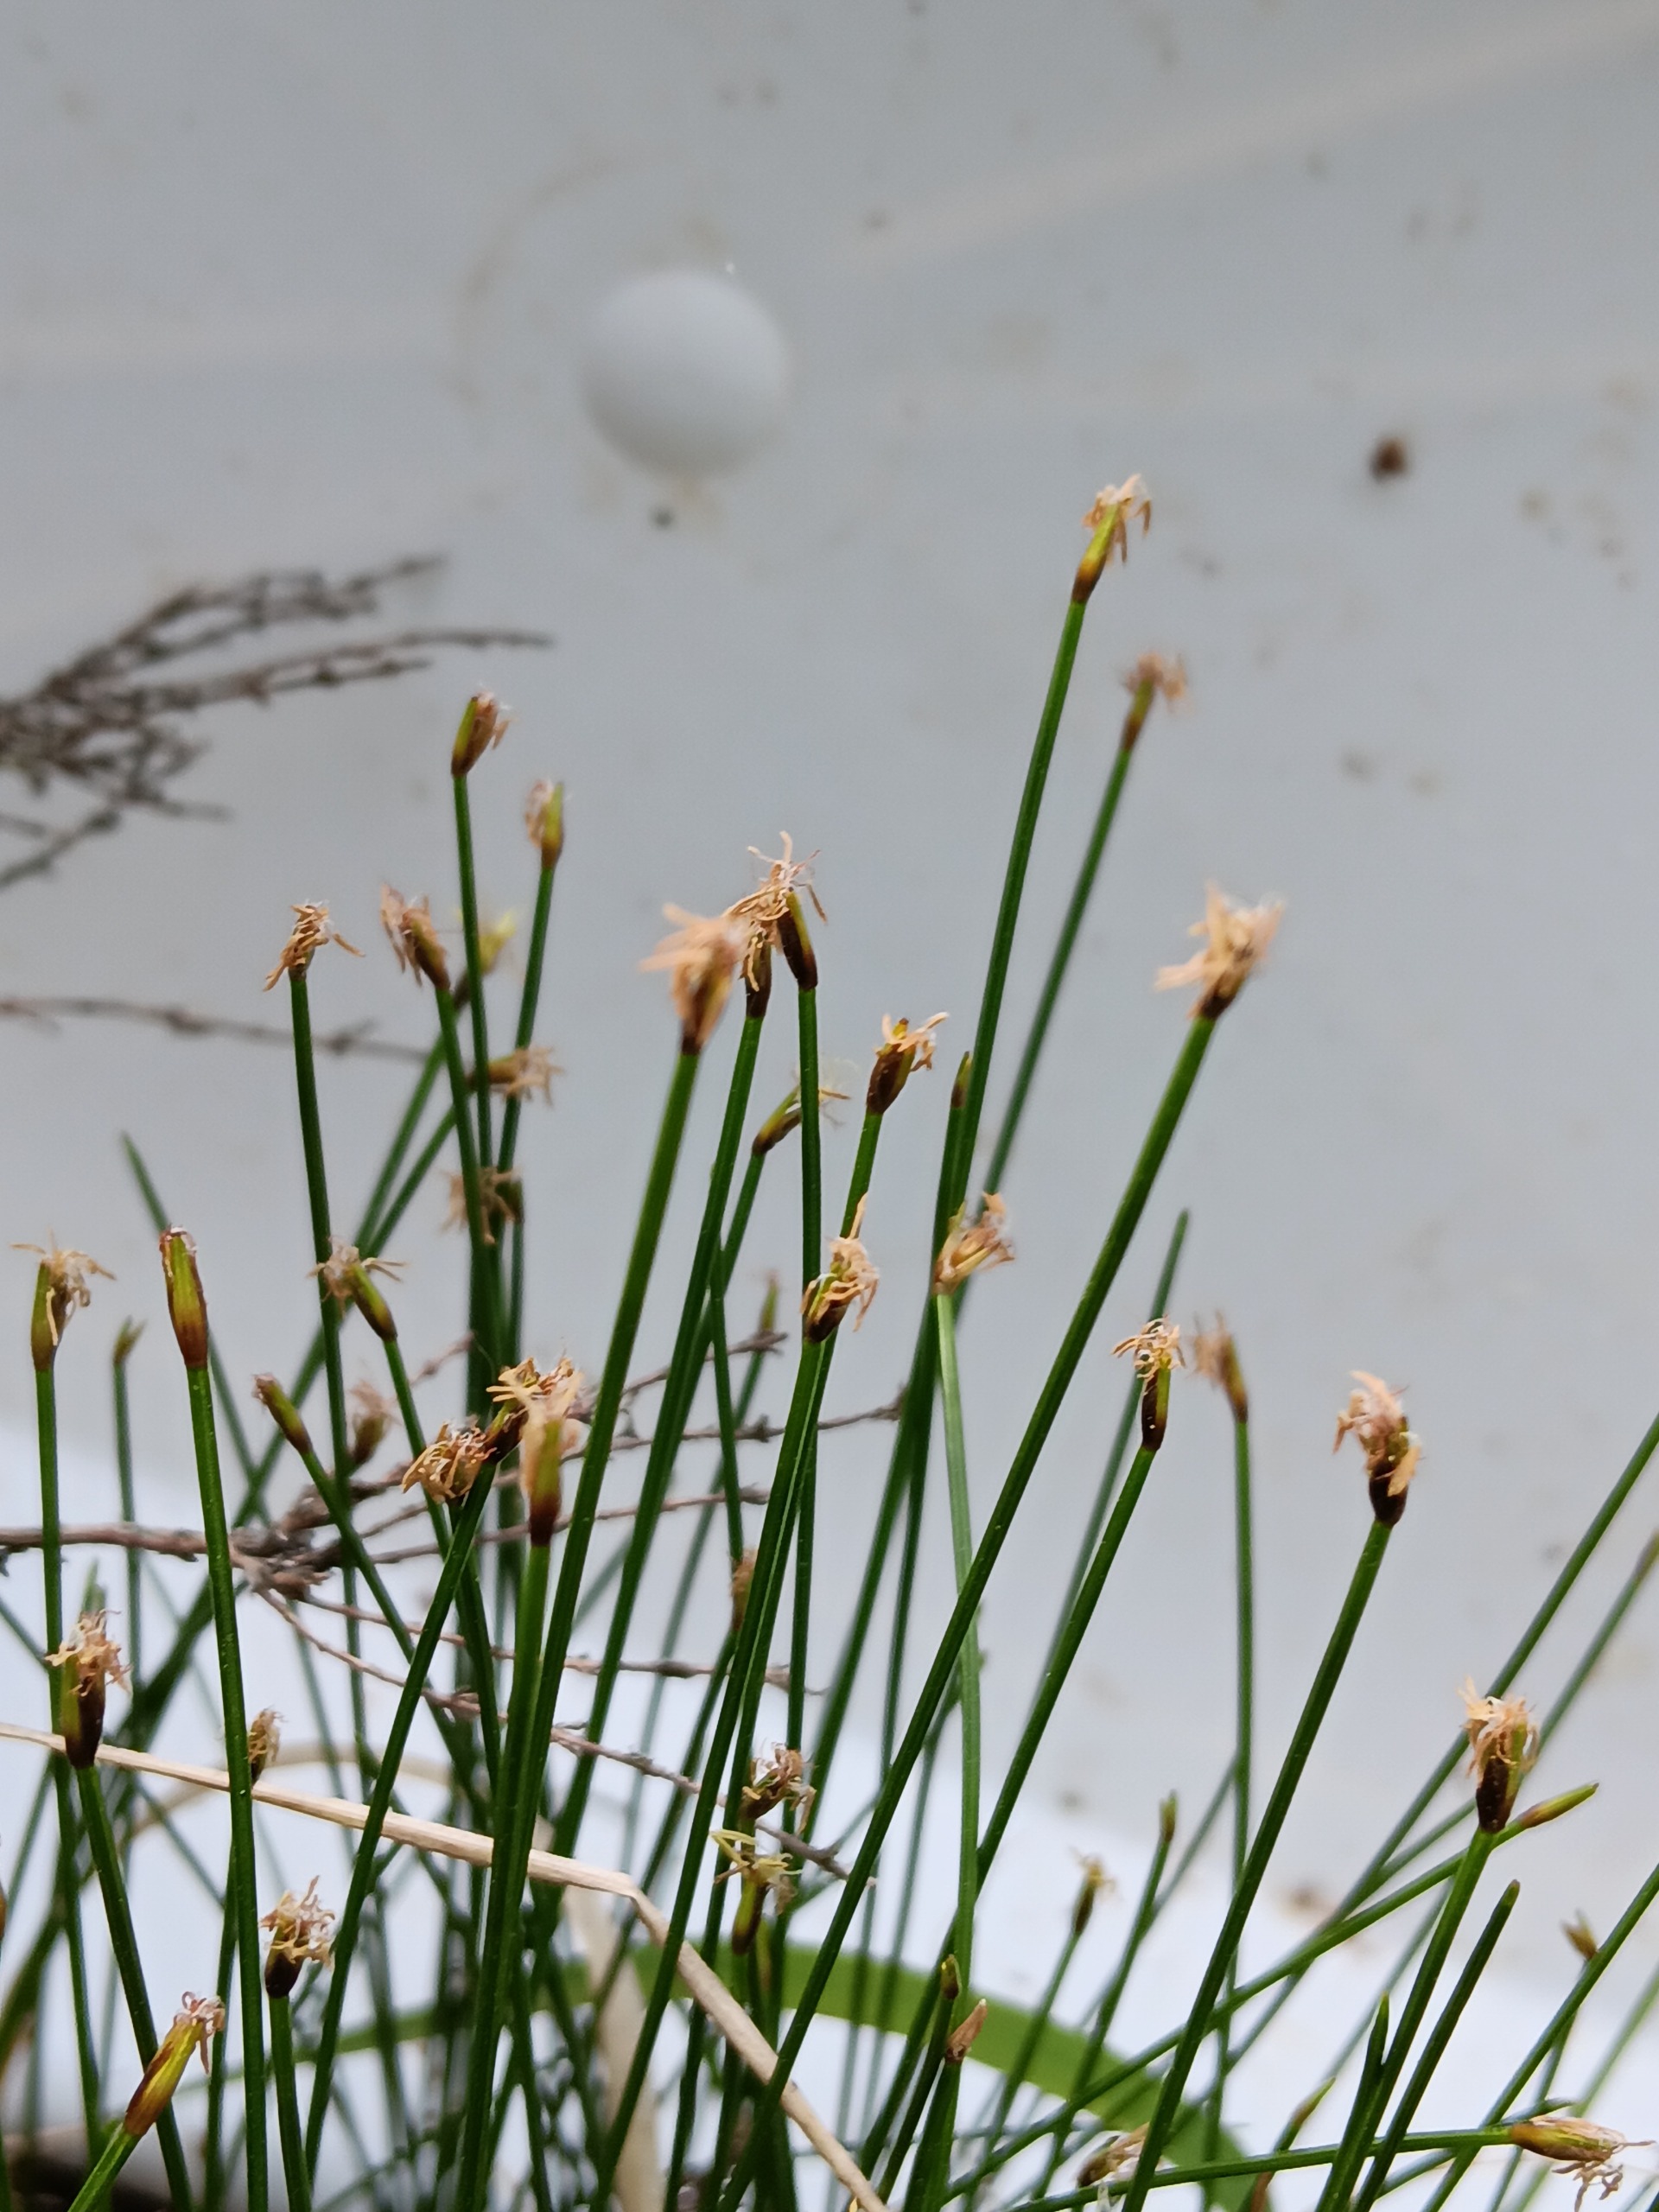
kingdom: Plantae
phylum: Tracheophyta
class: Liliopsida
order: Poales
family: Cyperaceae
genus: Trichophorum
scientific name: Trichophorum cespitosum
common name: Tuekogleaks
